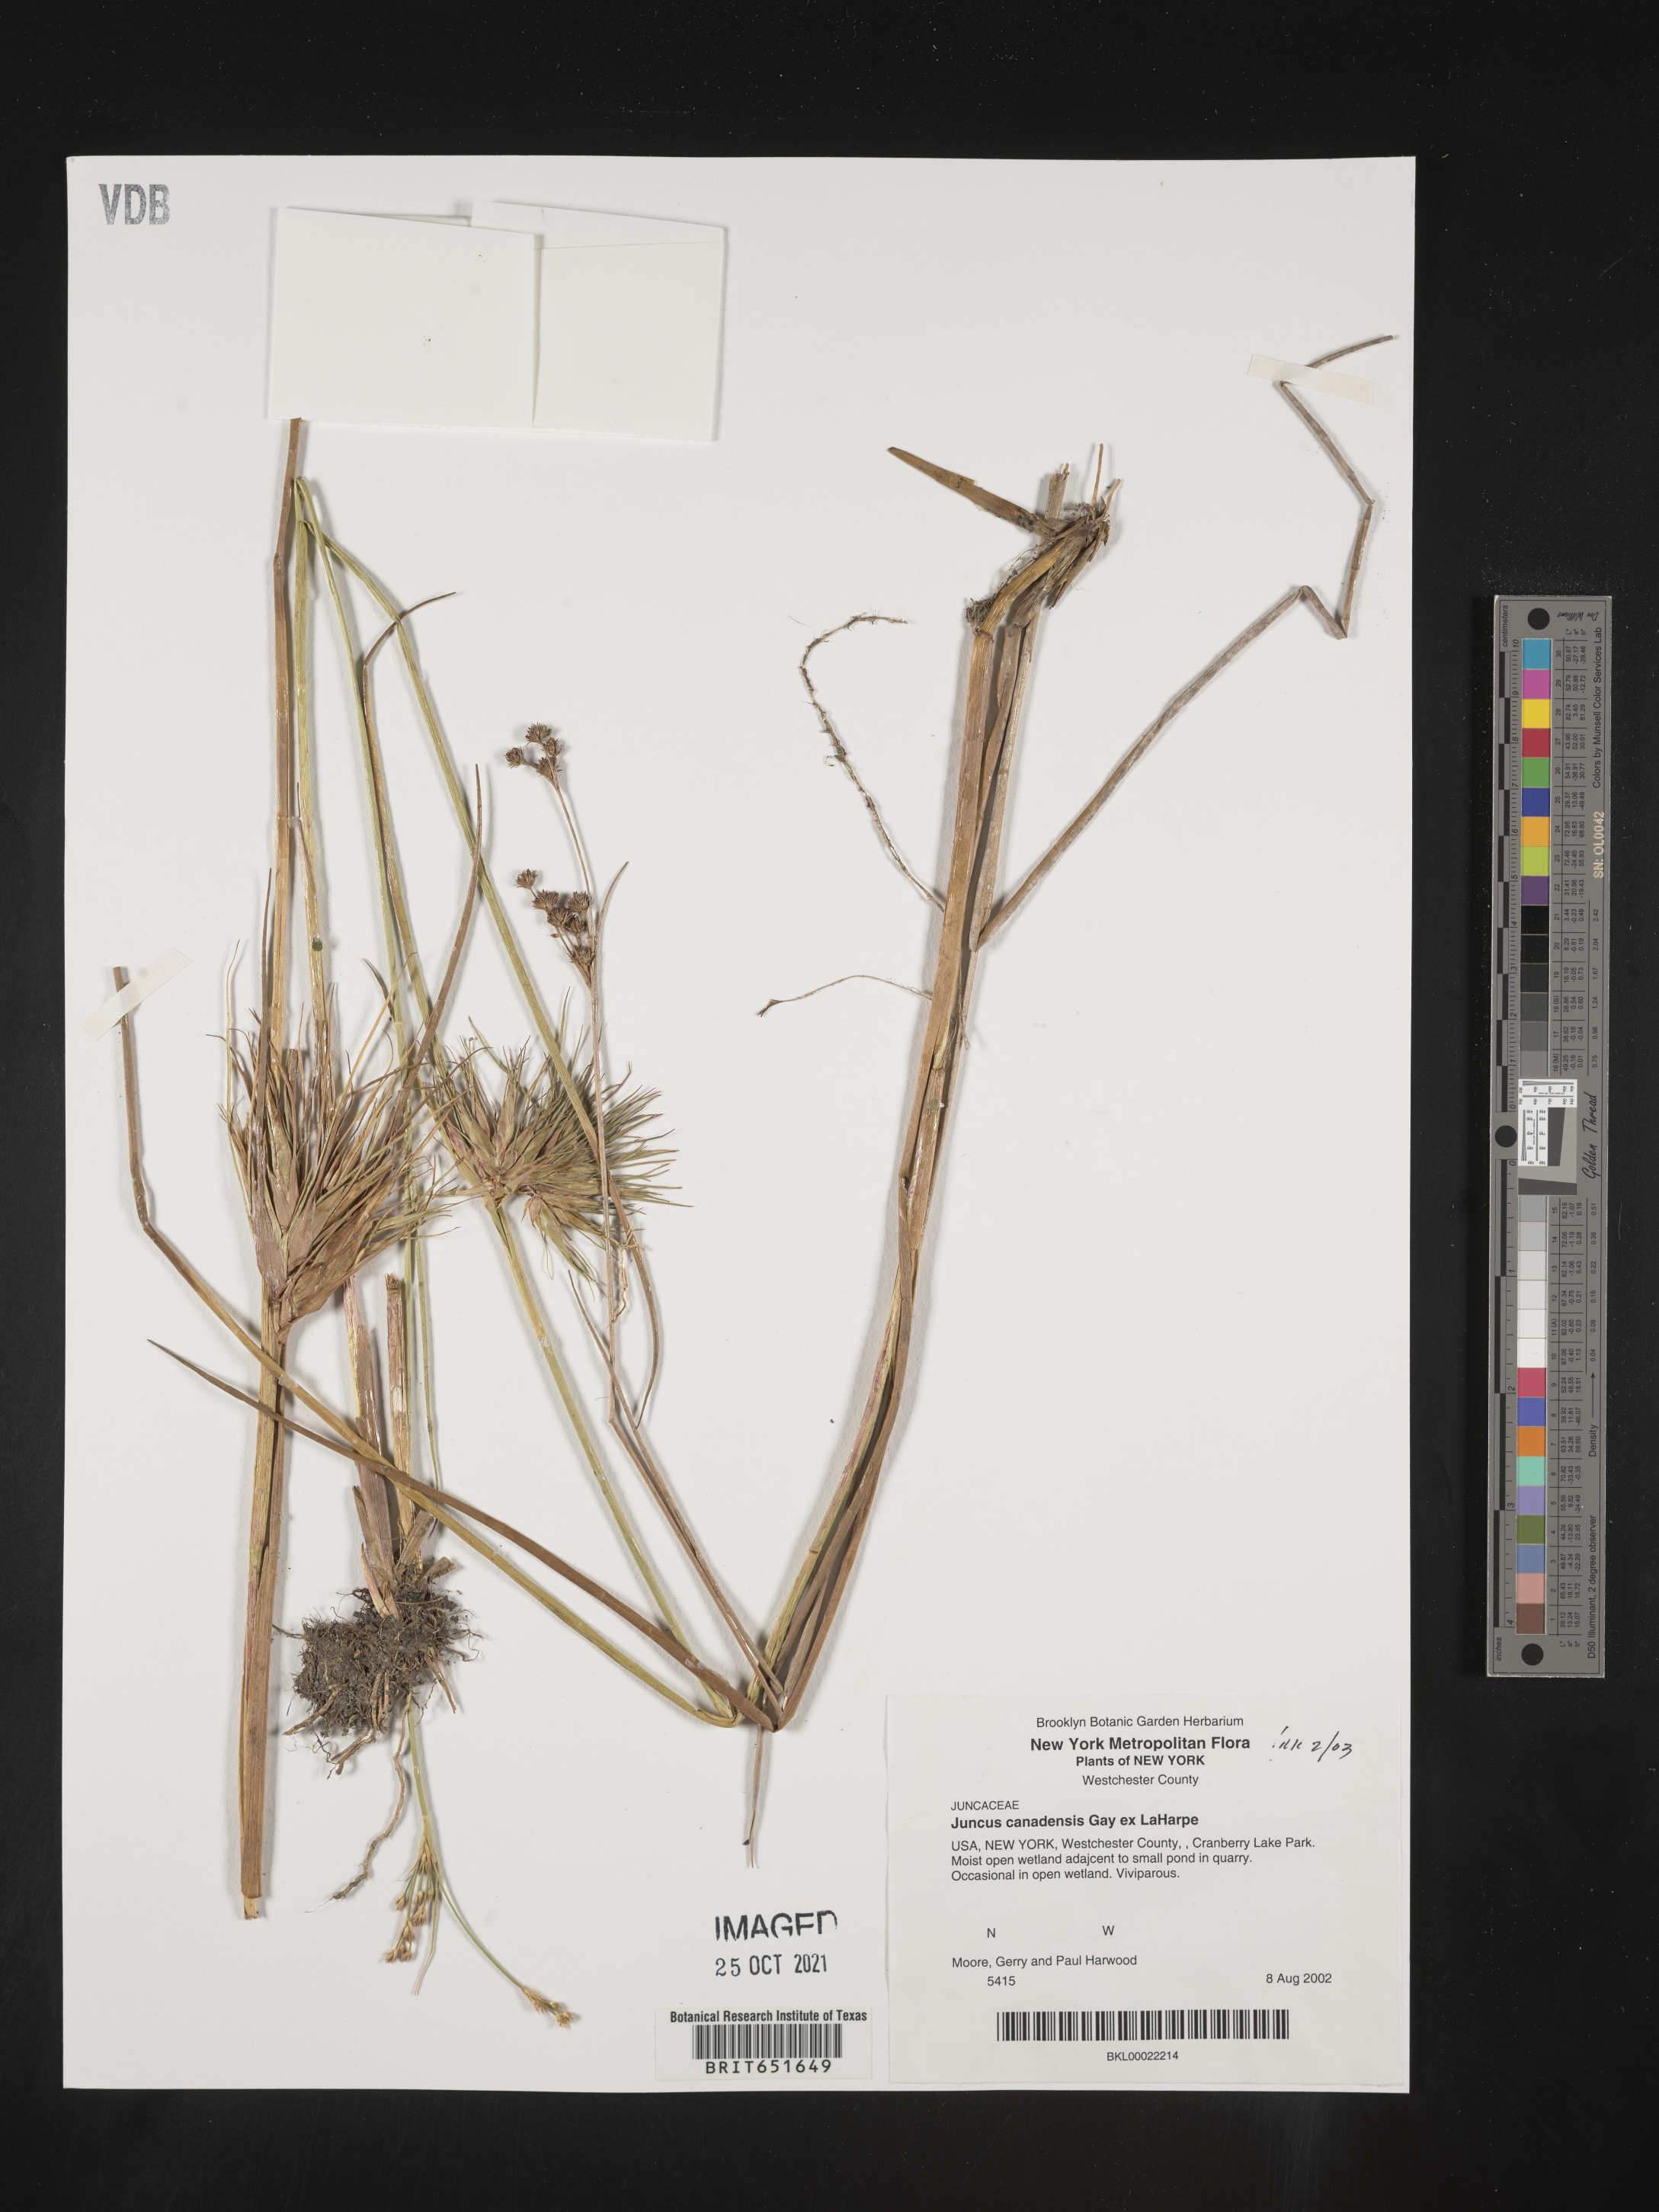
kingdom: Plantae
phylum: Tracheophyta
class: Liliopsida
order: Poales
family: Juncaceae
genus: Juncus
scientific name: Juncus canadensis
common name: Canada rush
